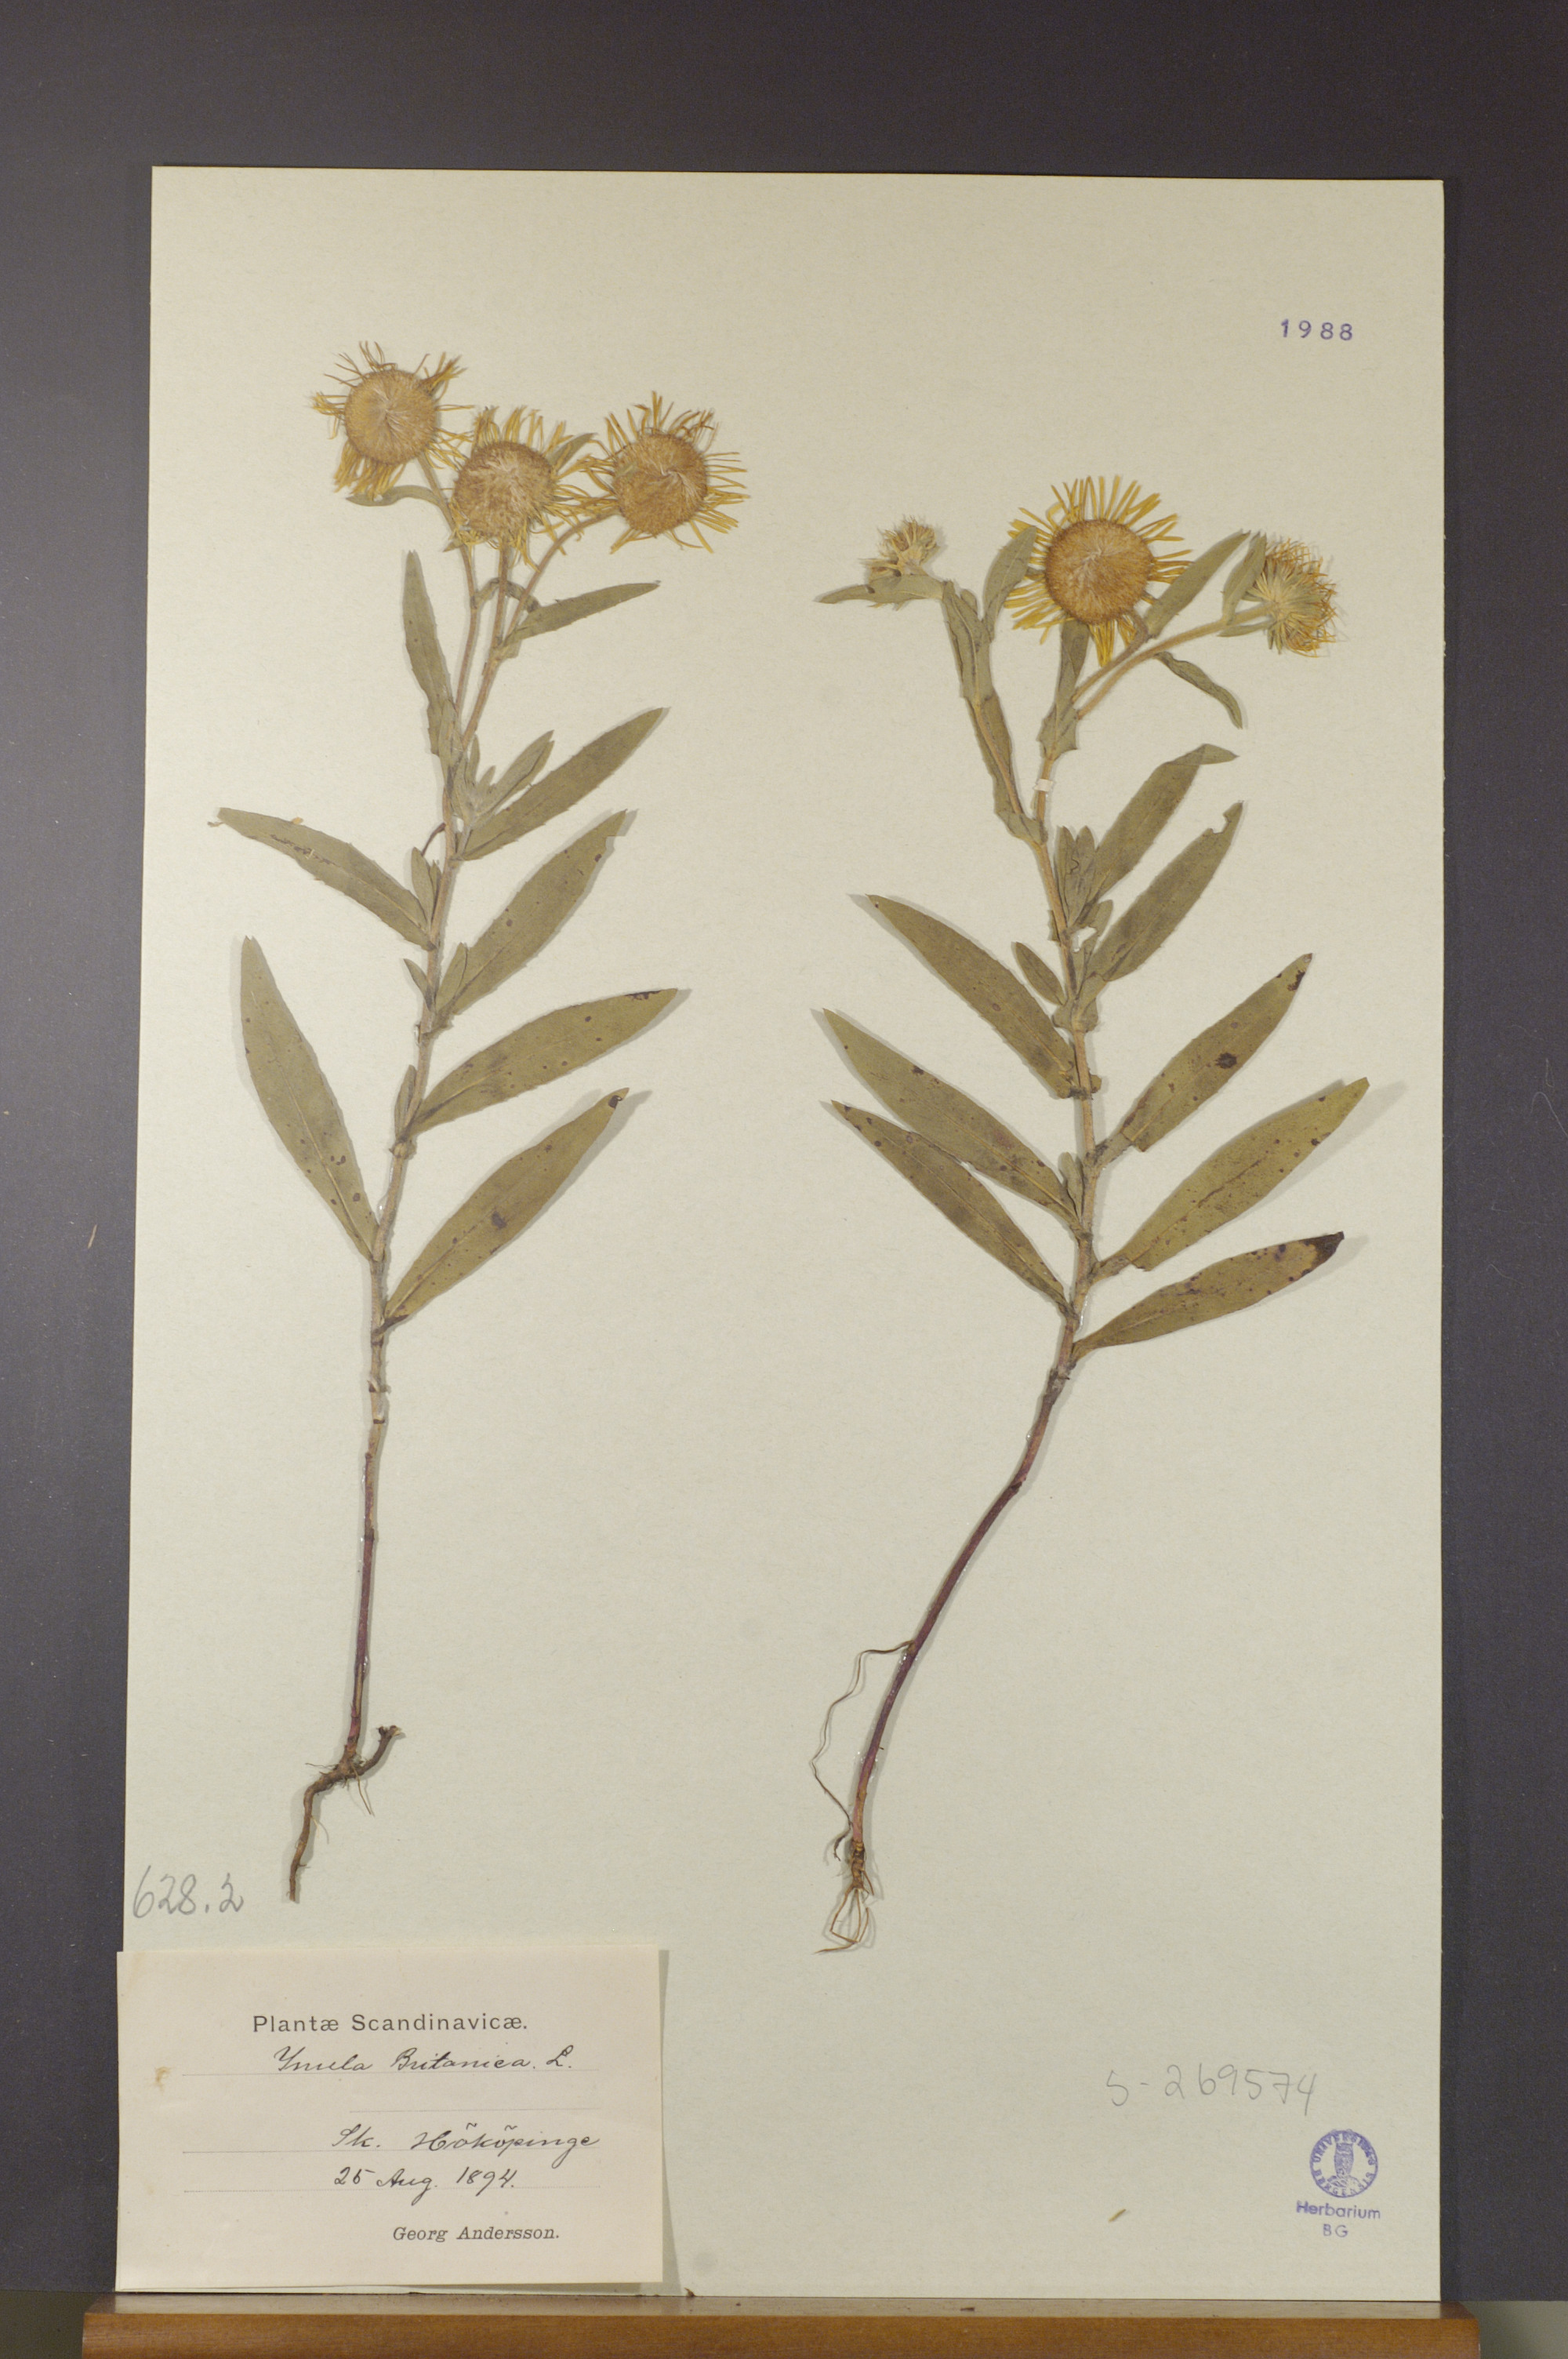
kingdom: Plantae
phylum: Tracheophyta
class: Magnoliopsida
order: Asterales
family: Asteraceae
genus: Pentanema
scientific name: Pentanema britannicum
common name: British elecampane
